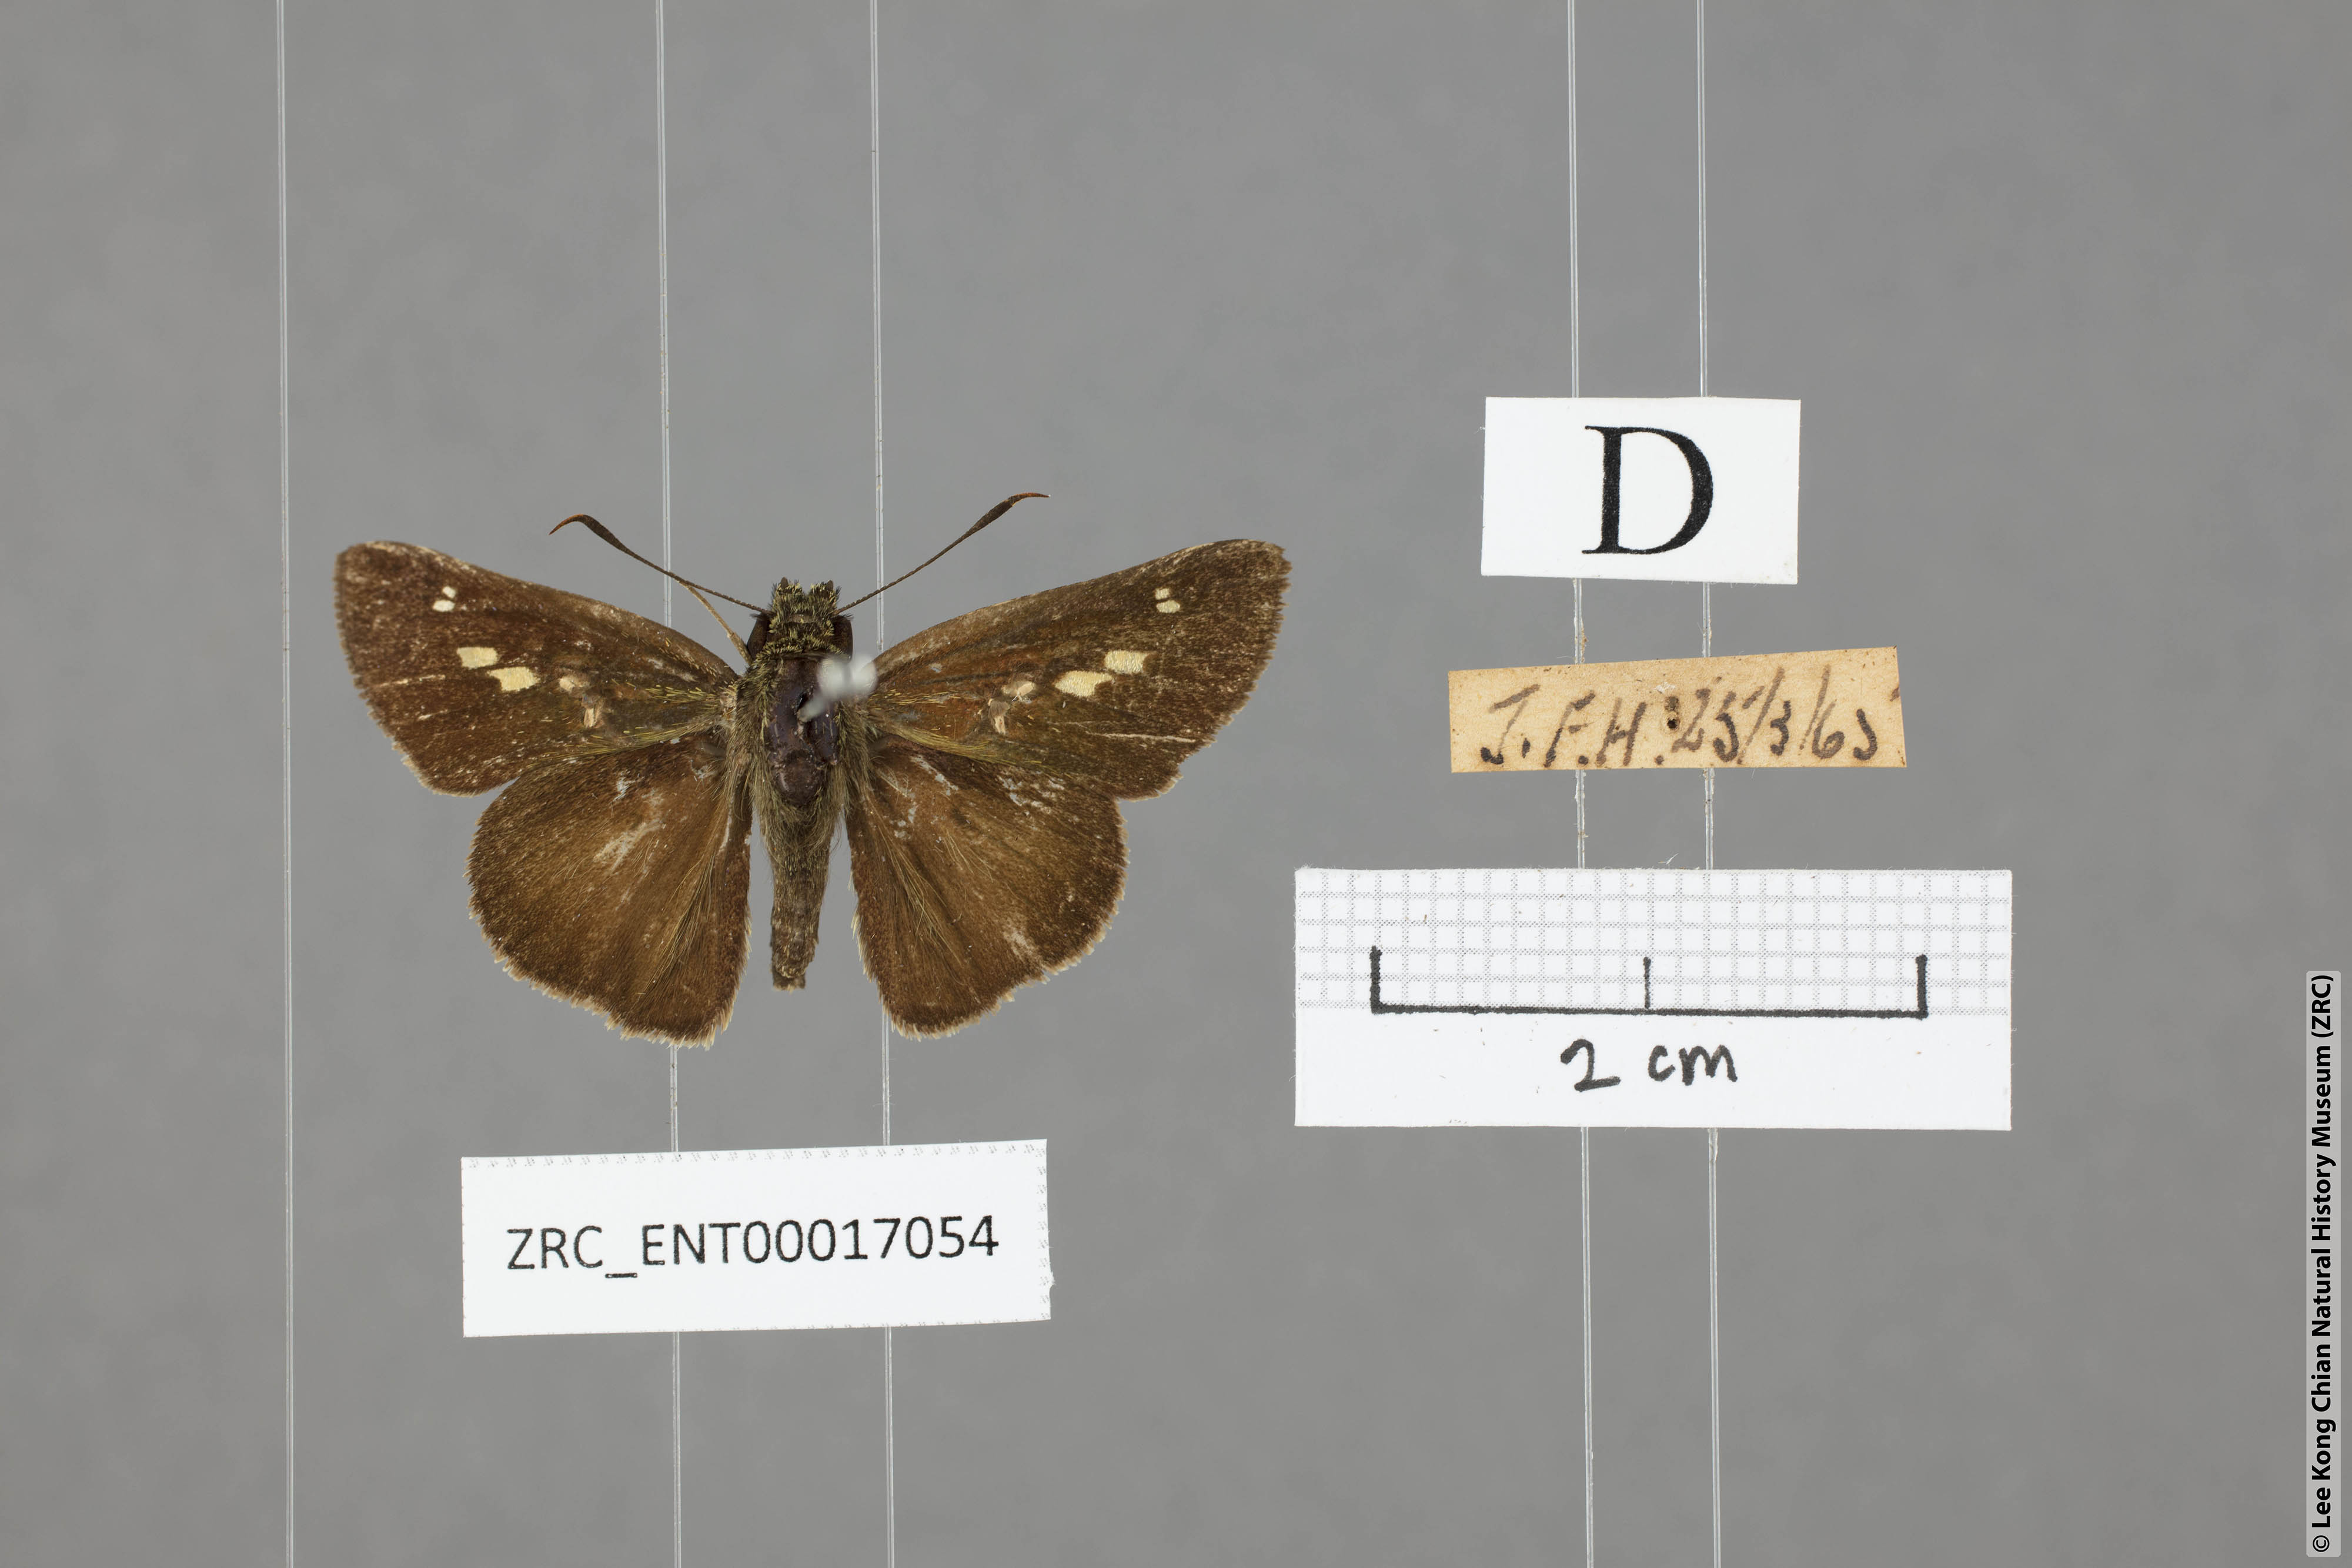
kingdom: Animalia
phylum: Arthropoda
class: Insecta
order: Lepidoptera
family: Hesperiidae
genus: Halpe
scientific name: Halpe sikkima
